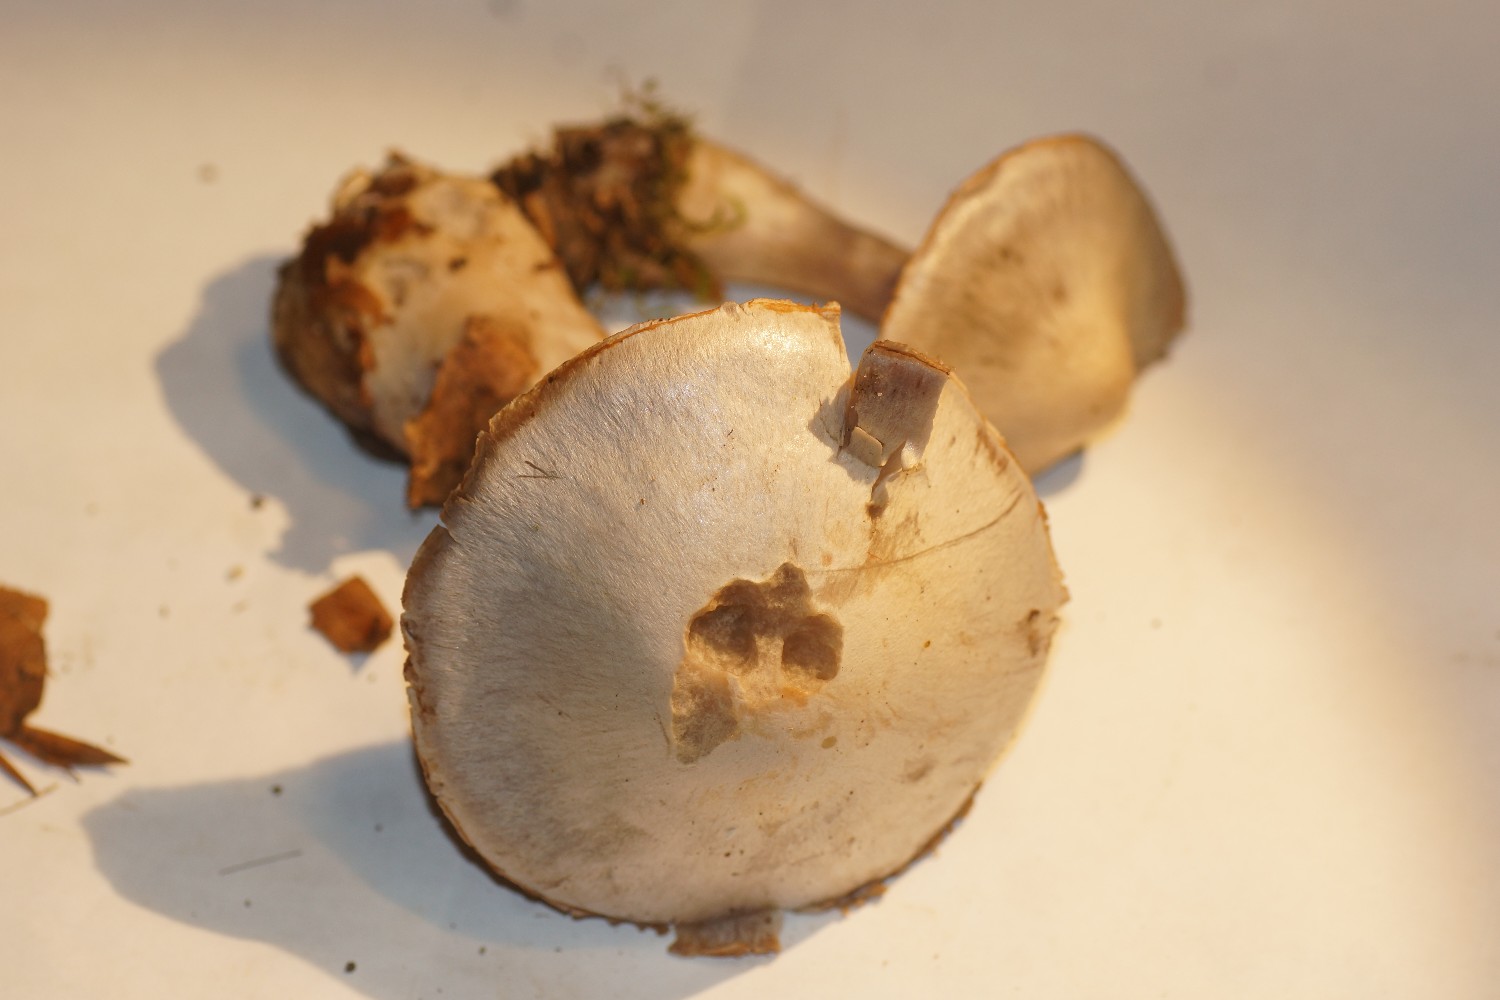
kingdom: Fungi
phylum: Basidiomycota
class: Agaricomycetes
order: Agaricales
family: Cortinariaceae
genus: Cortinarius
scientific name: Cortinarius alboviolaceus
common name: lysviolet slørhat
